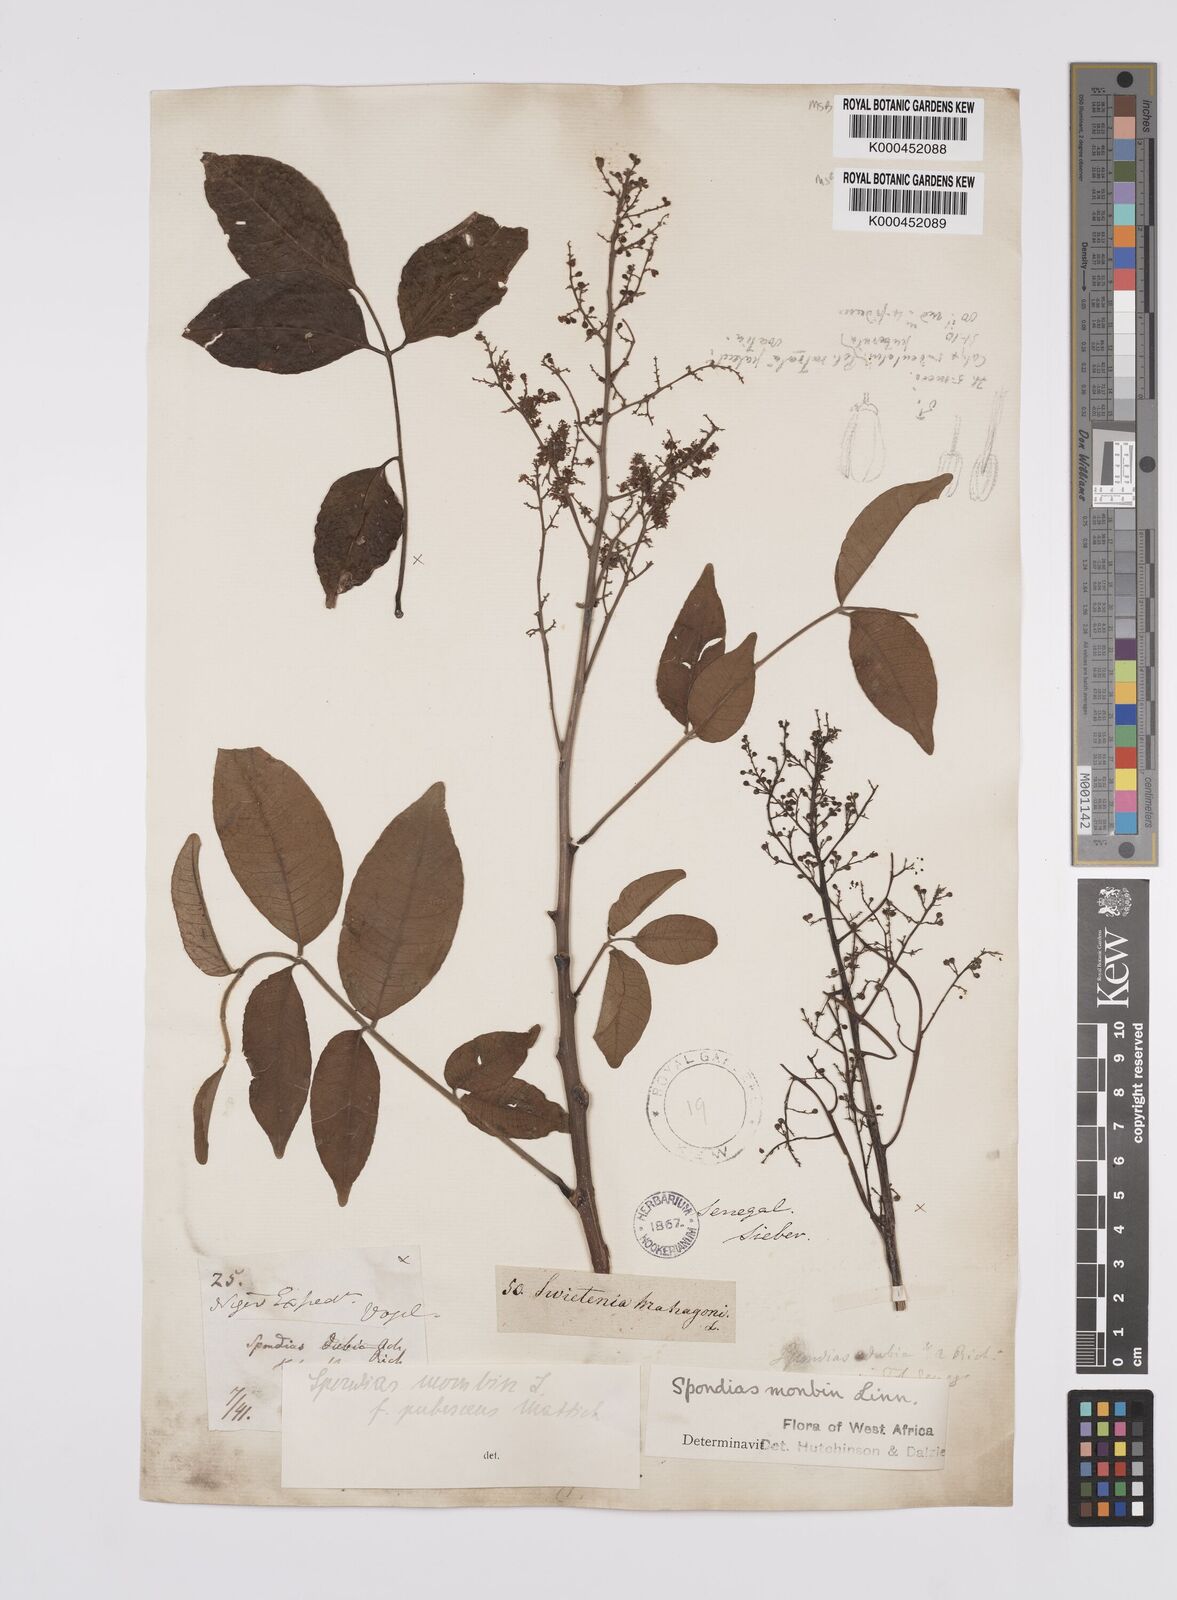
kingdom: Plantae
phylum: Tracheophyta
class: Magnoliopsida
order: Sapindales
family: Anacardiaceae
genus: Spondias
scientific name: Spondias mombin
